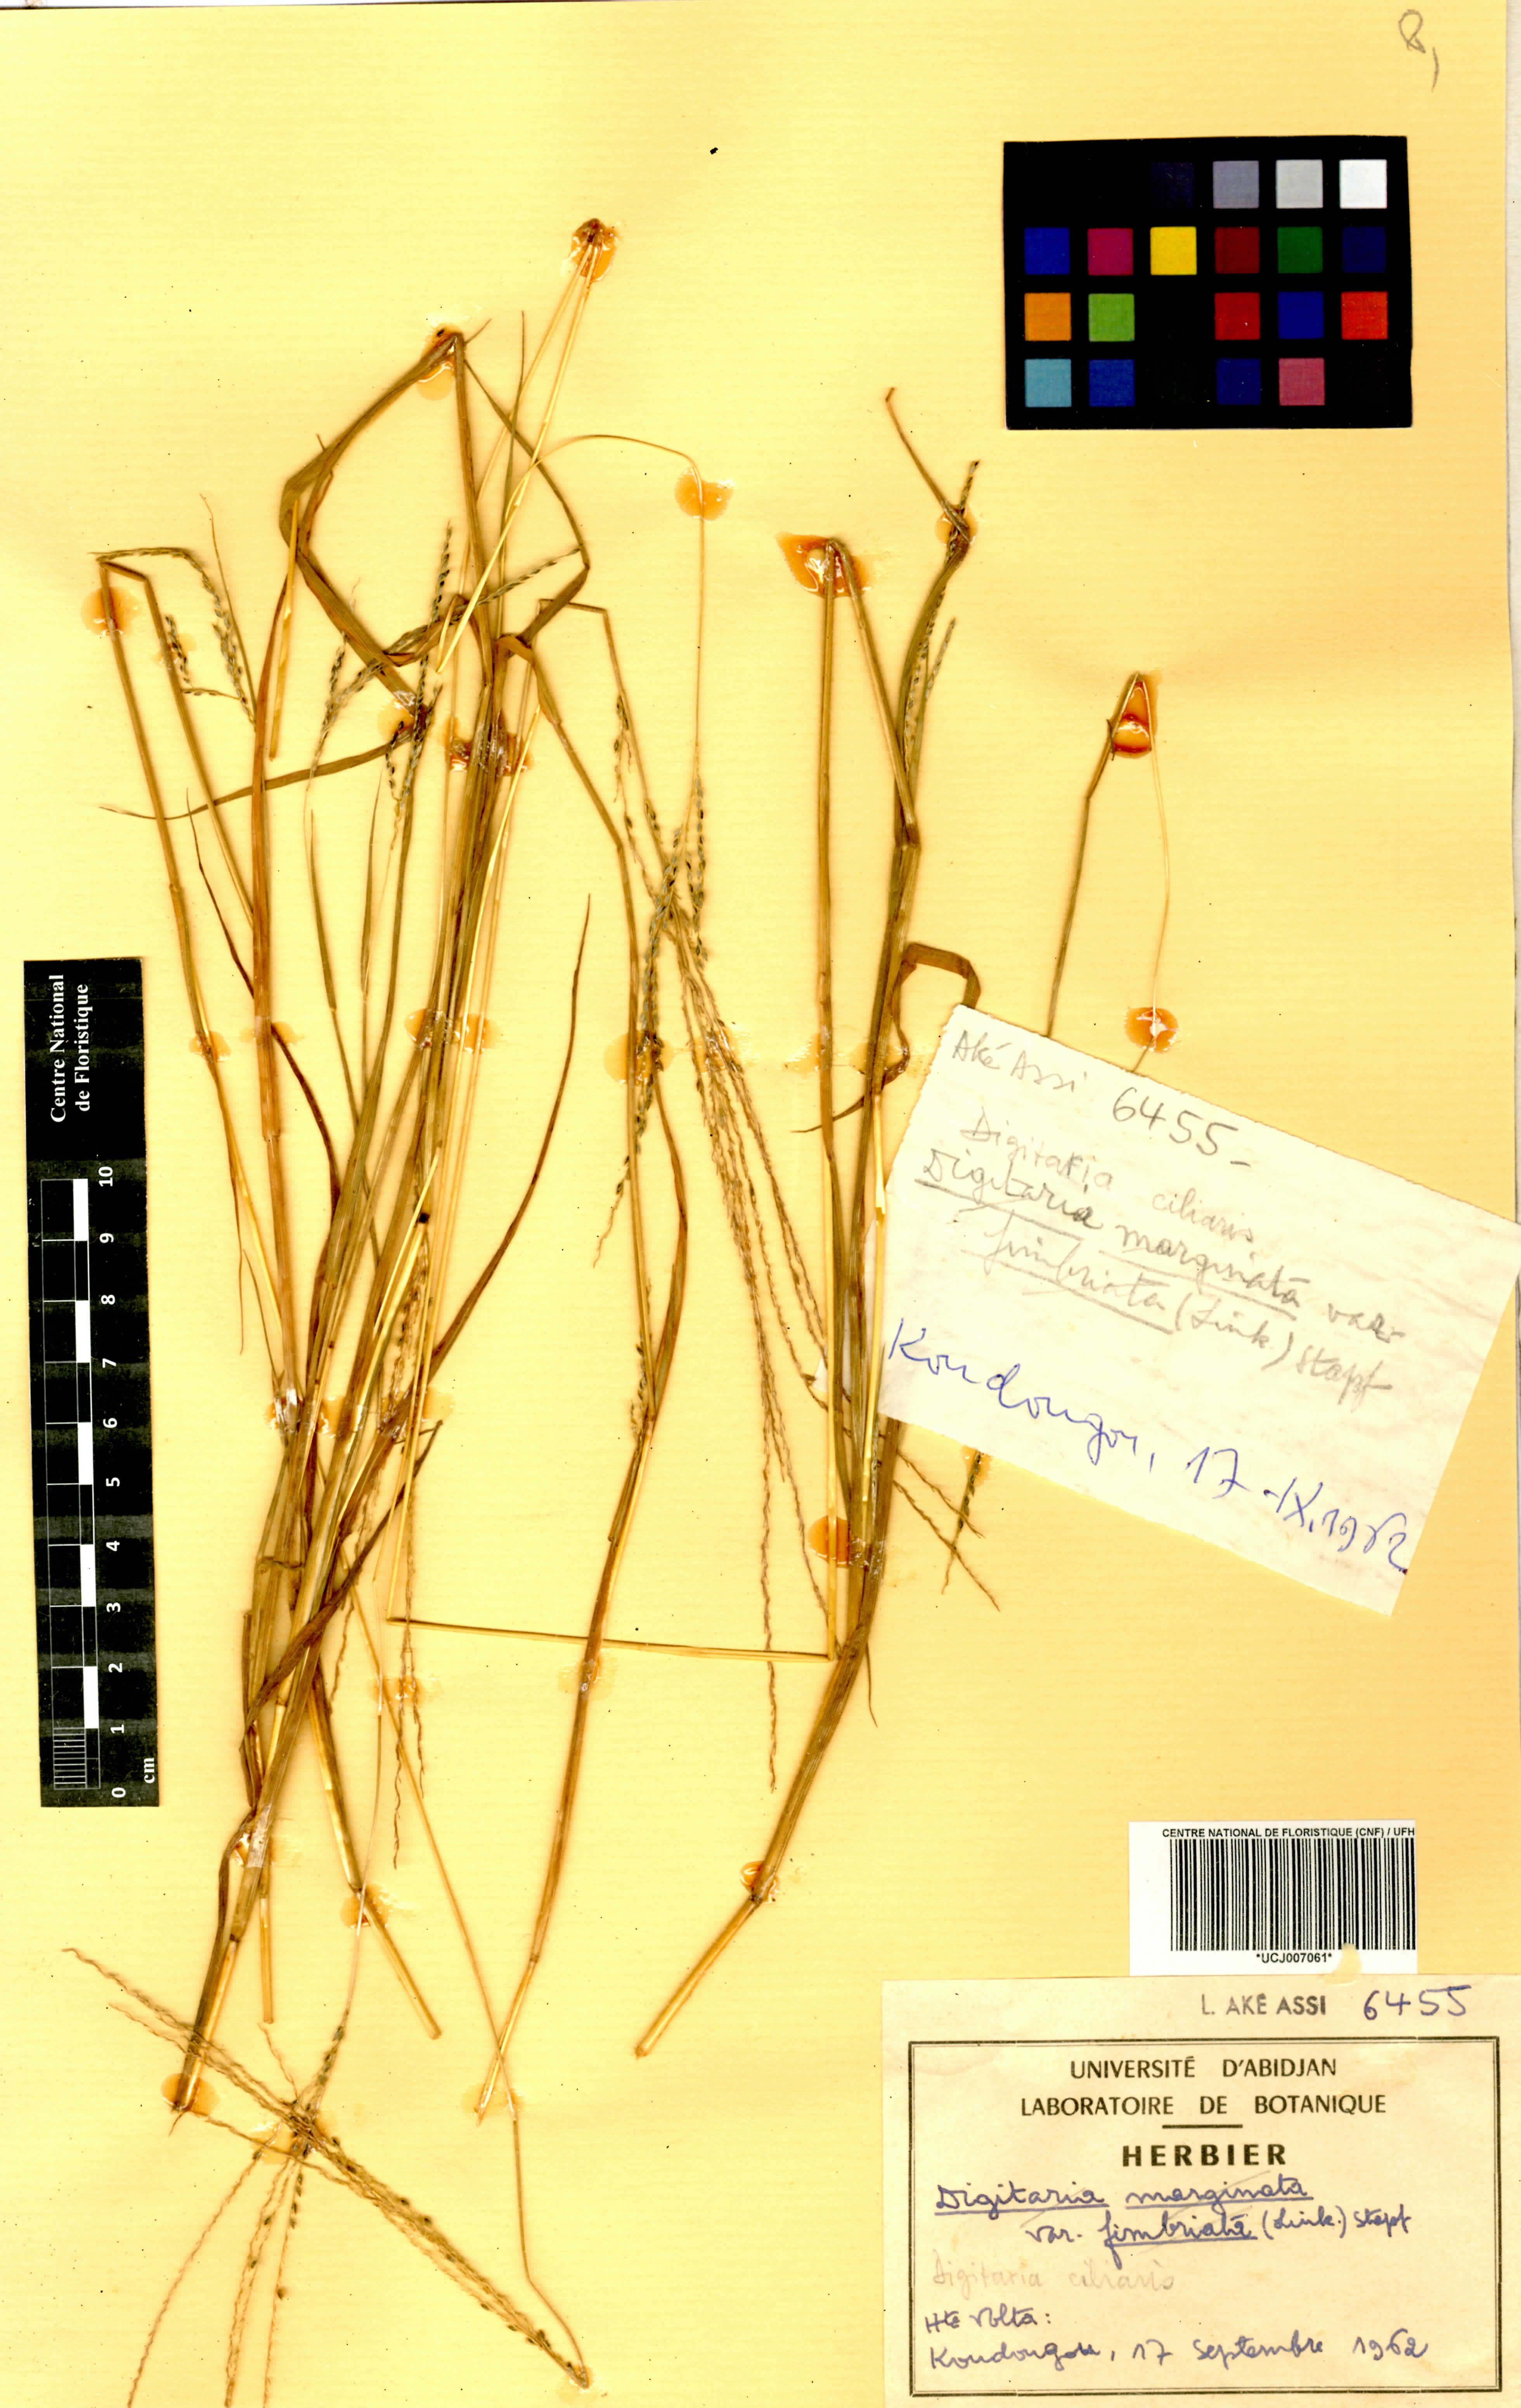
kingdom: Plantae
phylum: Tracheophyta
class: Liliopsida
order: Poales
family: Poaceae
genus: Digitaria
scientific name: Digitaria abyssinica
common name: African couchgrass
